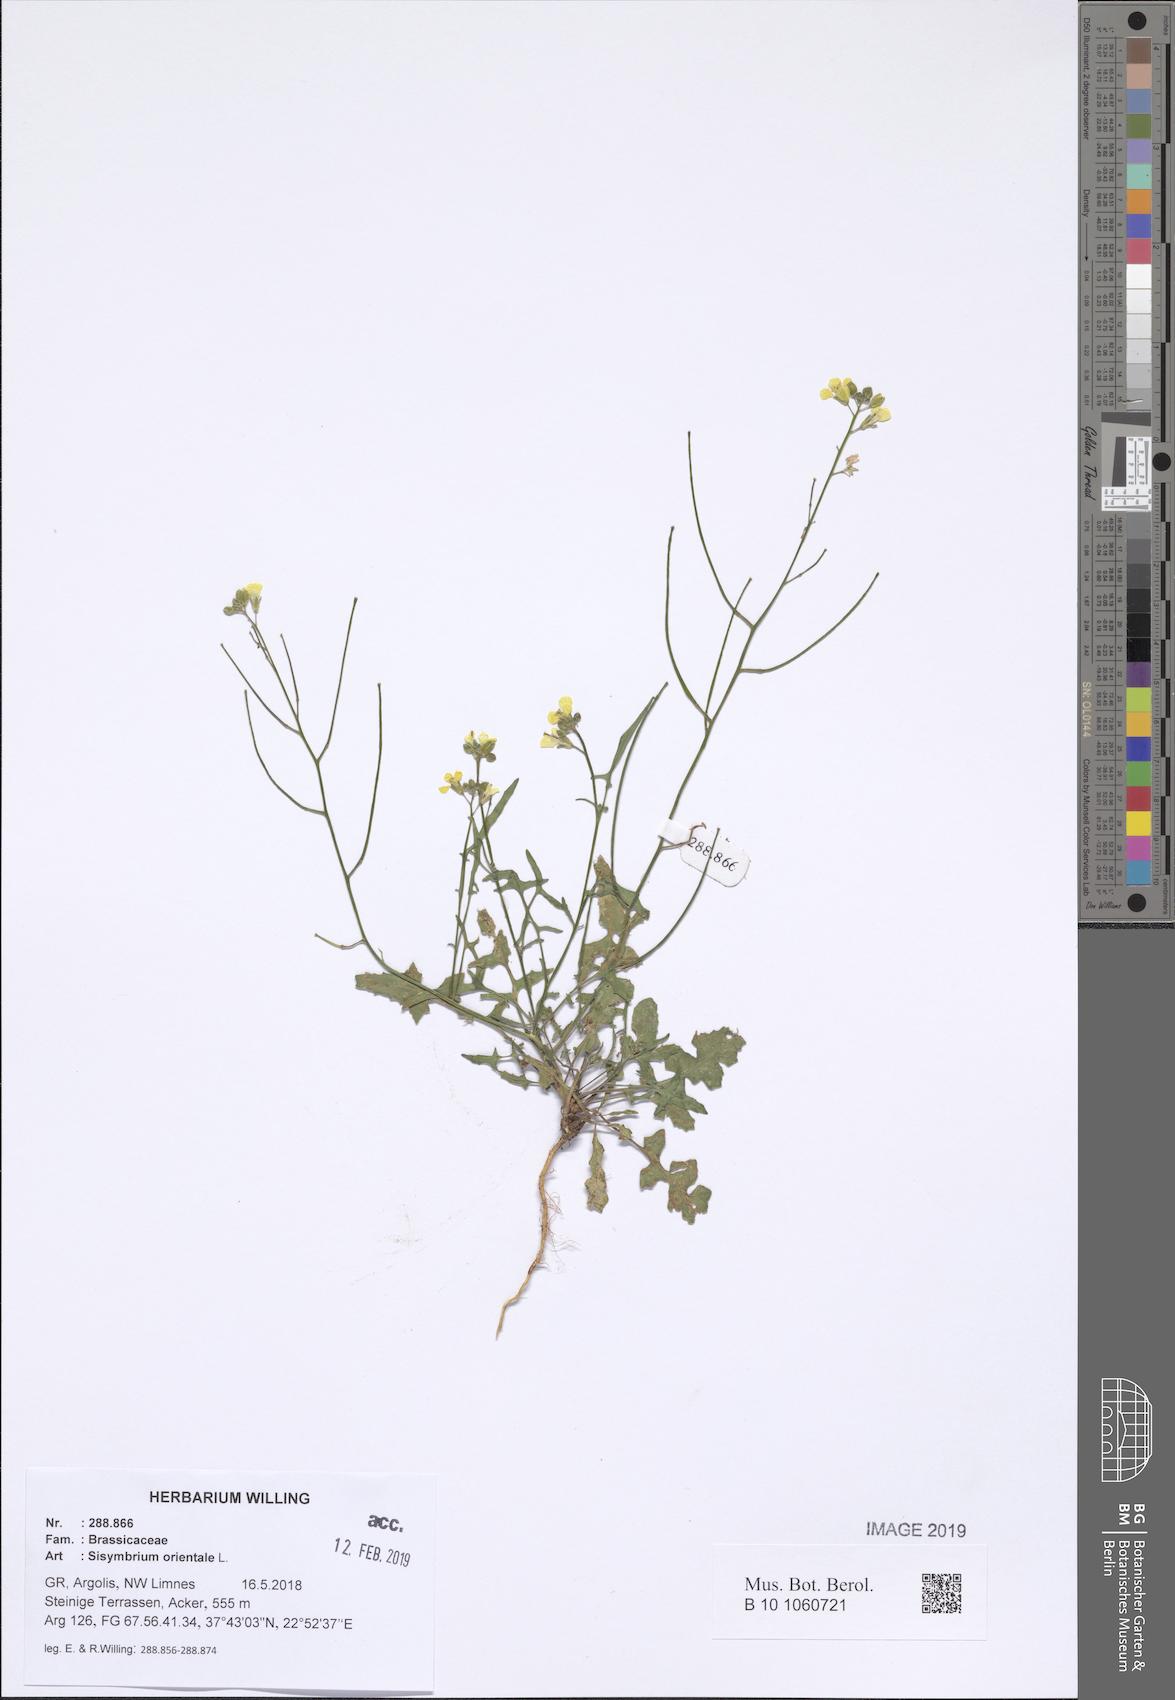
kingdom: Plantae
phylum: Tracheophyta
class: Magnoliopsida
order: Brassicales
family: Brassicaceae
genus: Sisymbrium
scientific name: Sisymbrium orientale
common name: Eastern rocket
